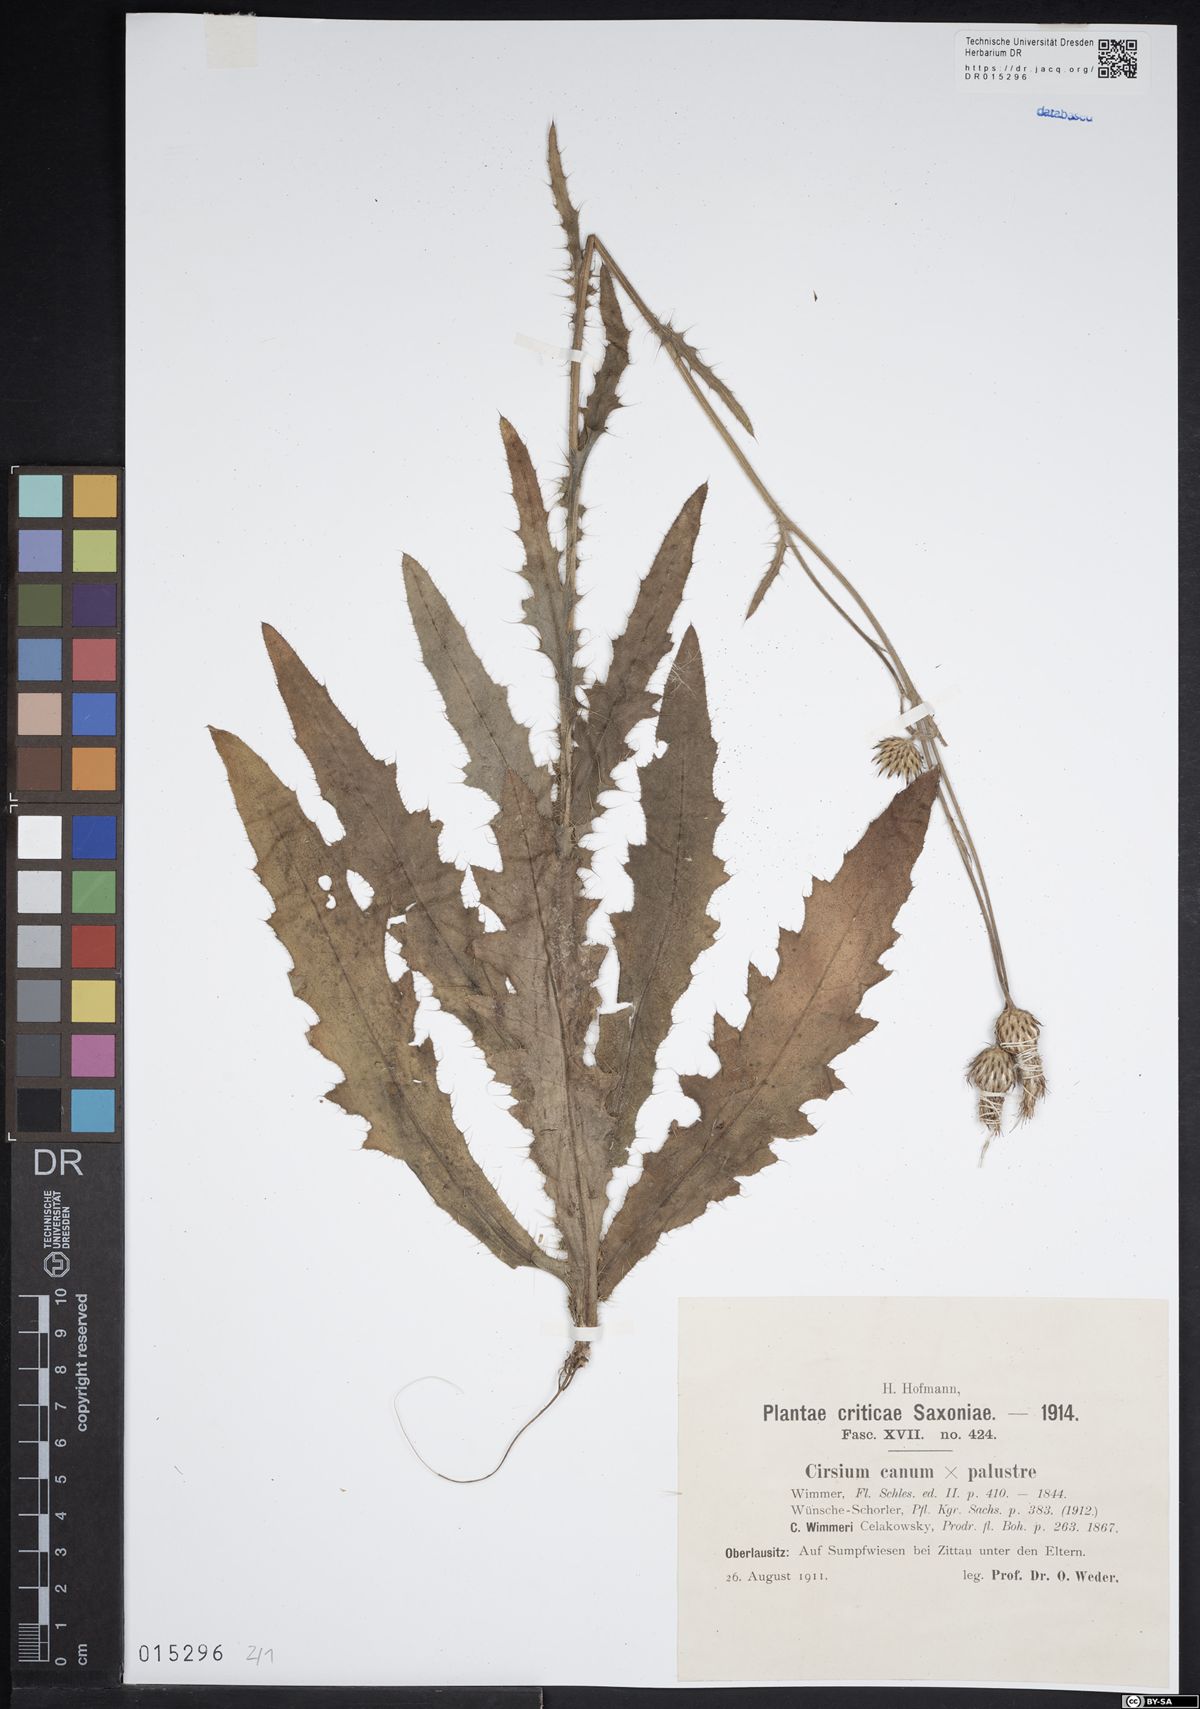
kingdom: Plantae
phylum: Tracheophyta
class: Magnoliopsida
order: Asterales
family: Asteraceae
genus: Cirsium
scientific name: Cirsium silesiacum
